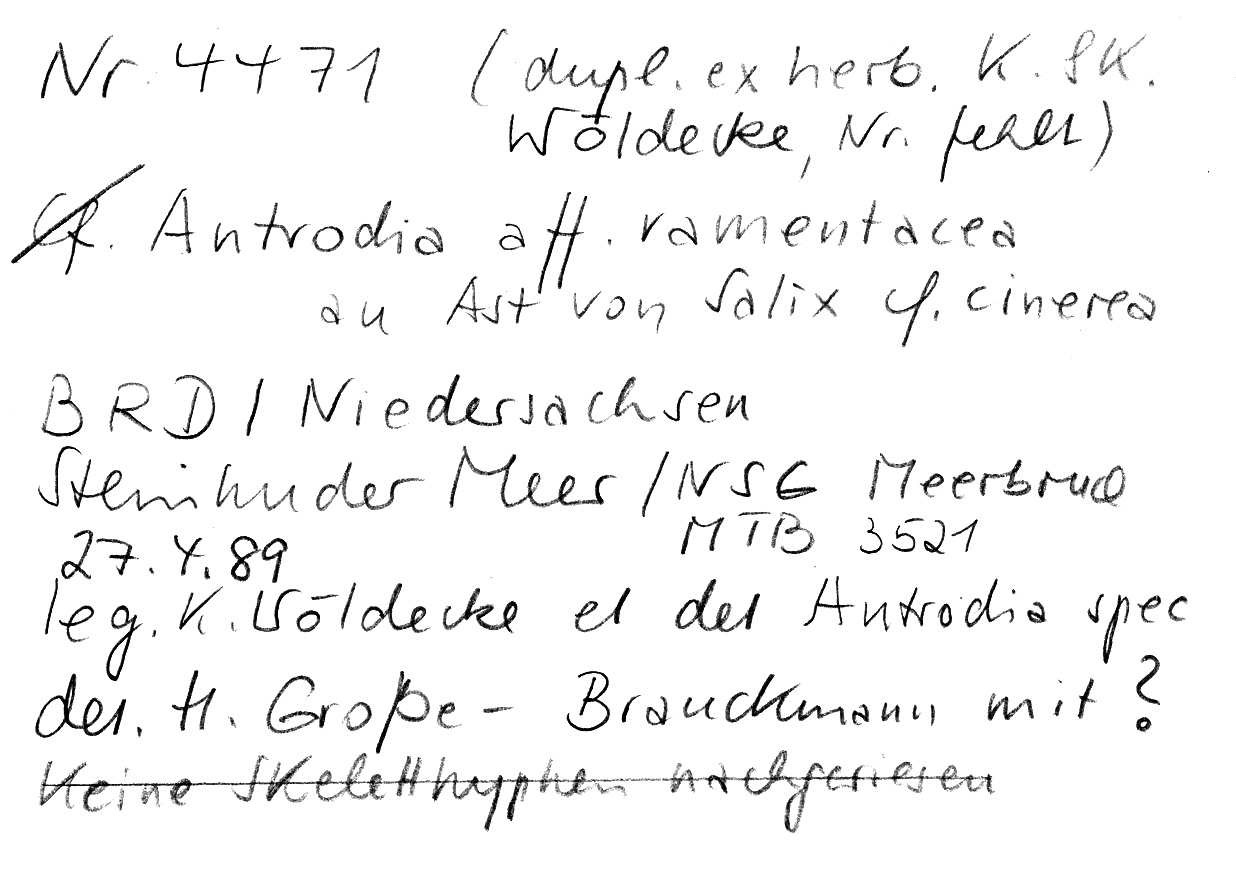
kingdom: Fungi
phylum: Basidiomycota
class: Agaricomycetes
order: Polyporales
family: Fomitopsidaceae
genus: Antrodia
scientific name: Antrodia ramentacea
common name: Honeycomb crust
